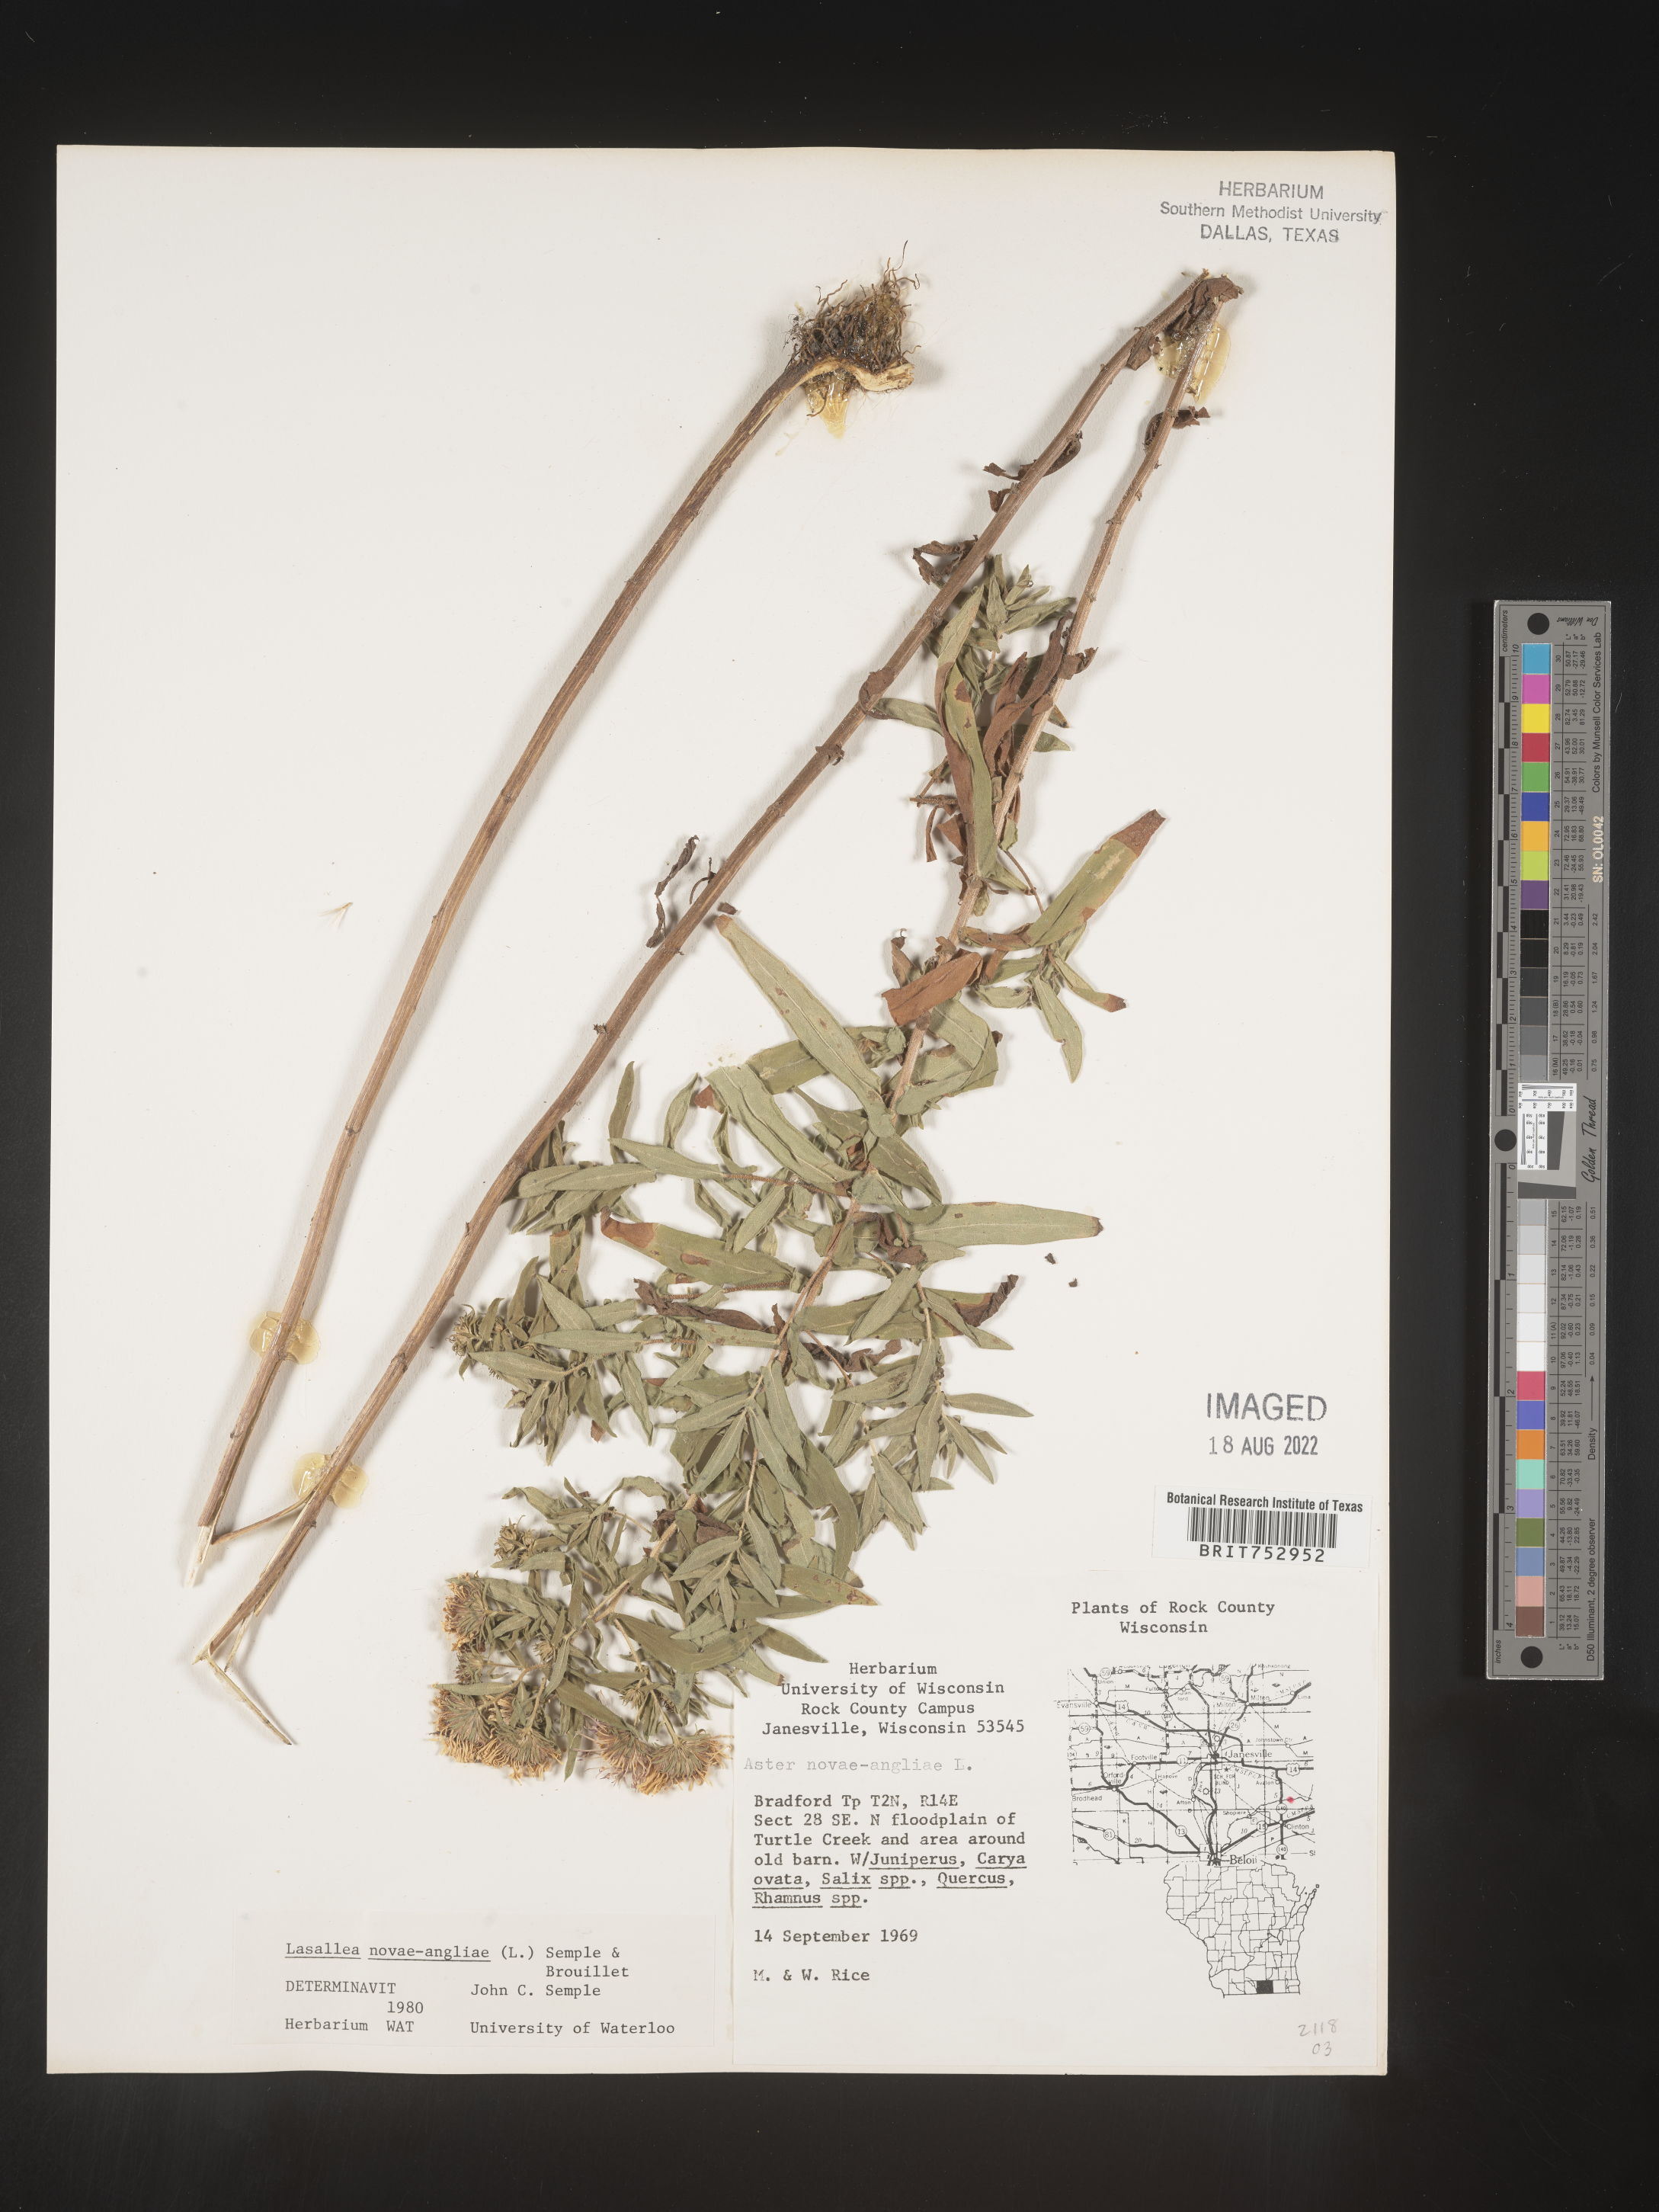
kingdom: Plantae
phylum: Tracheophyta
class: Magnoliopsida
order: Asterales
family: Asteraceae
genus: Symphyotrichum
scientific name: Symphyotrichum novae-angliae
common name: Michaelmas daisy
